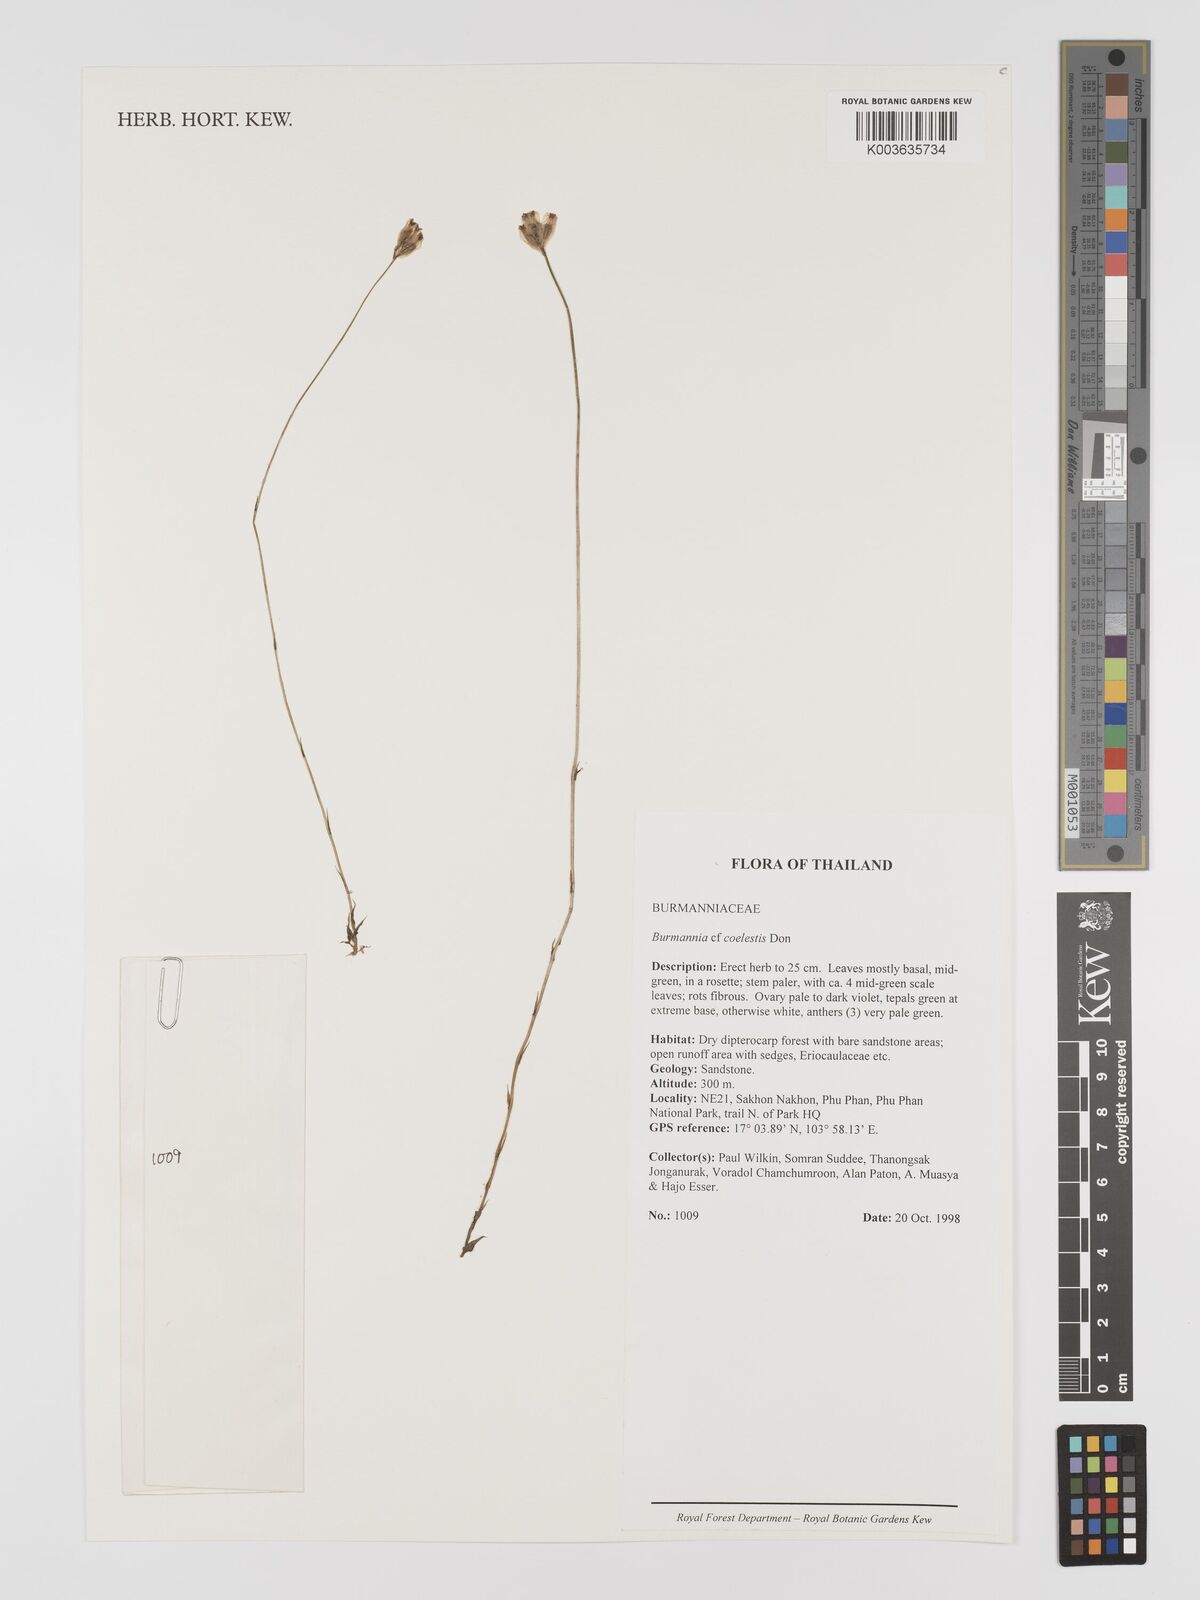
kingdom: Plantae
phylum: Tracheophyta
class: Liliopsida
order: Dioscoreales
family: Burmanniaceae
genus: Burmannia
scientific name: Burmannia coelestis
